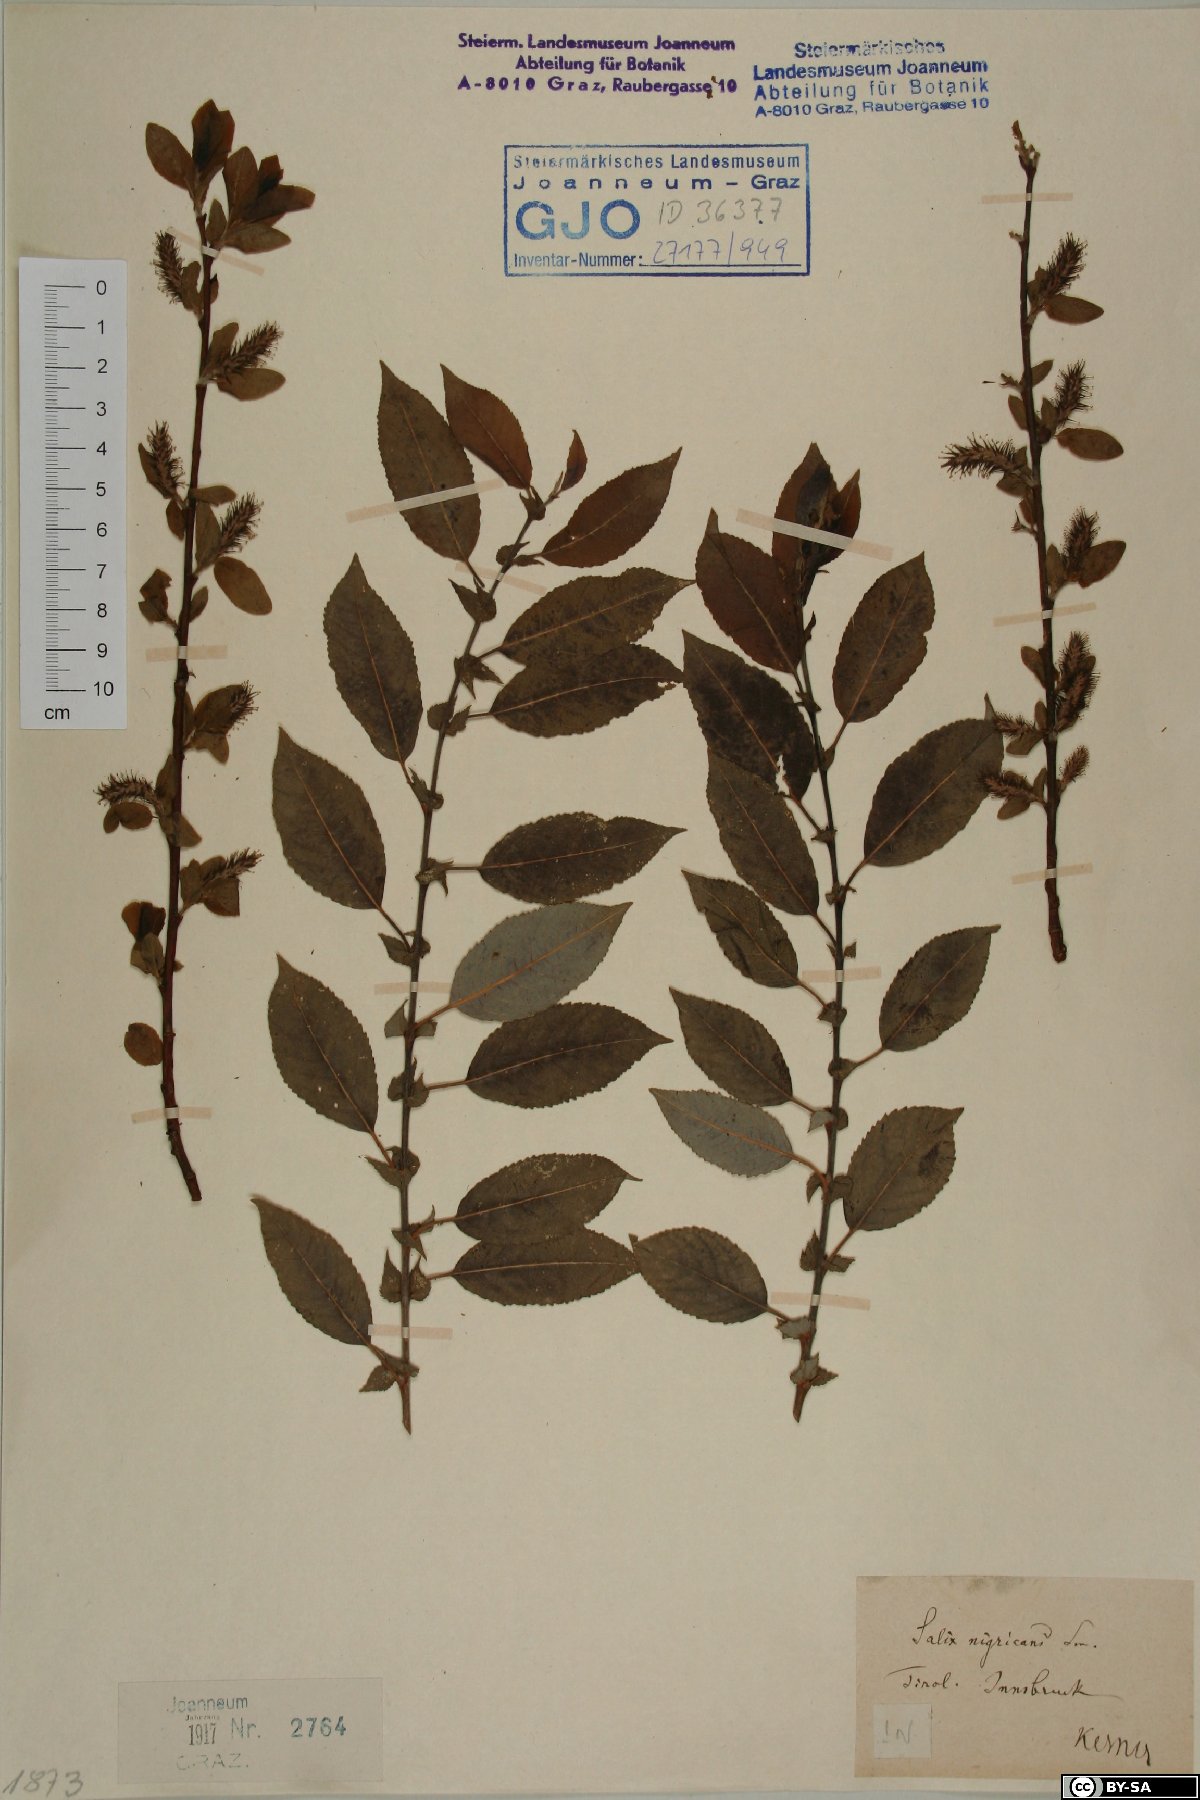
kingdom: Plantae
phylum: Tracheophyta
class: Magnoliopsida
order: Malpighiales
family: Salicaceae
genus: Salix
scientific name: Salix myrsinifolia
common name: Dark-leaved willow
